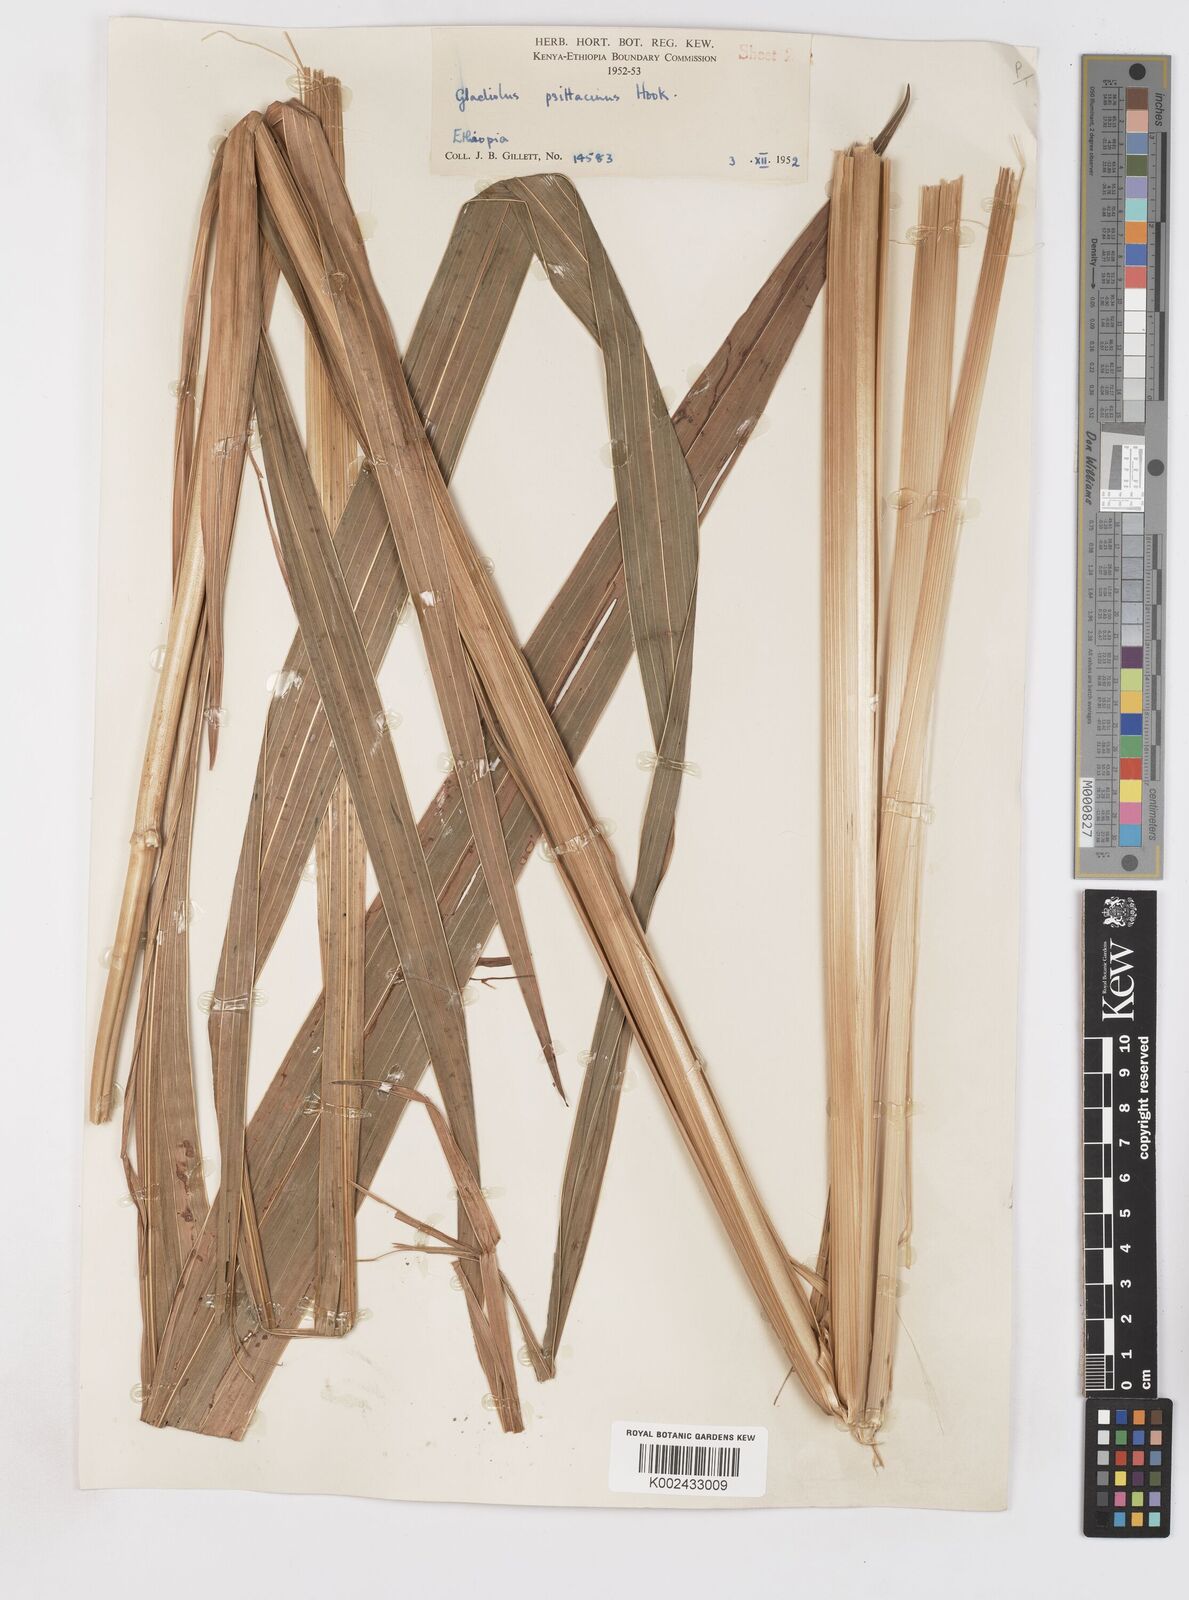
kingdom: Plantae
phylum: Tracheophyta
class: Liliopsida
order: Asparagales
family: Iridaceae
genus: Gladiolus
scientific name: Gladiolus dalenii
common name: Cornflag
